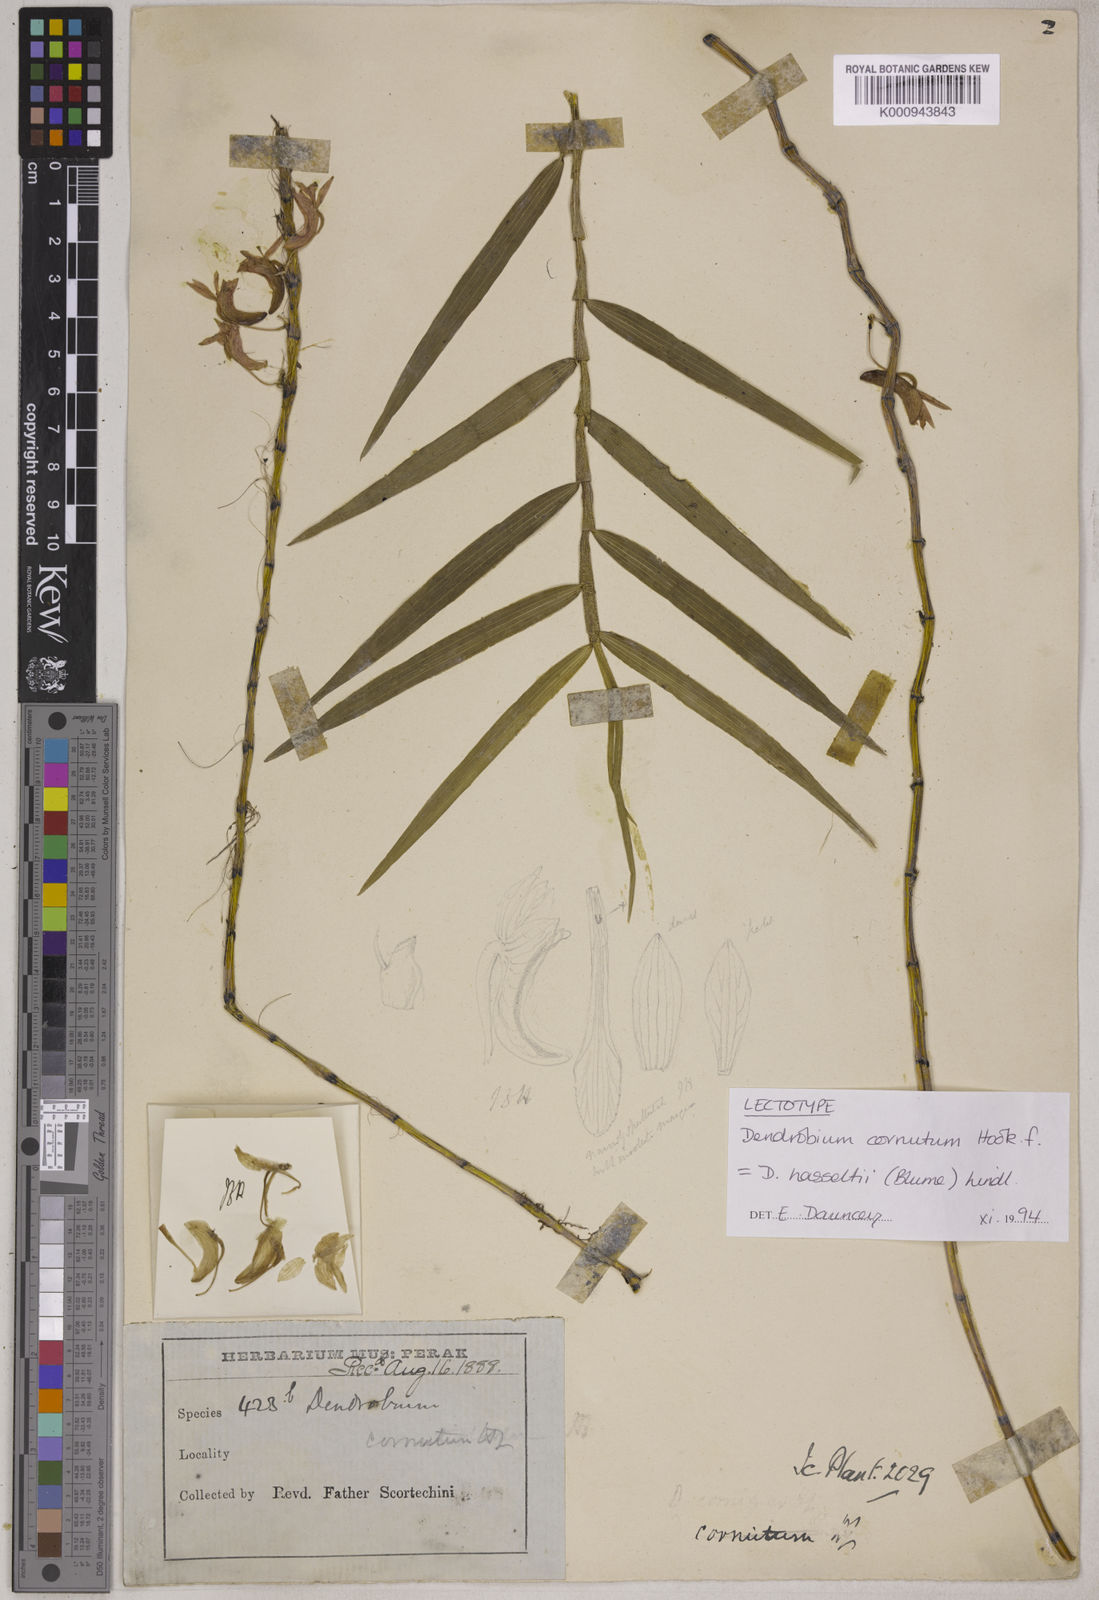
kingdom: Plantae
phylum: Tracheophyta
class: Liliopsida
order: Asparagales
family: Orchidaceae
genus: Dendrobium
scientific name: Dendrobium hasseltii
